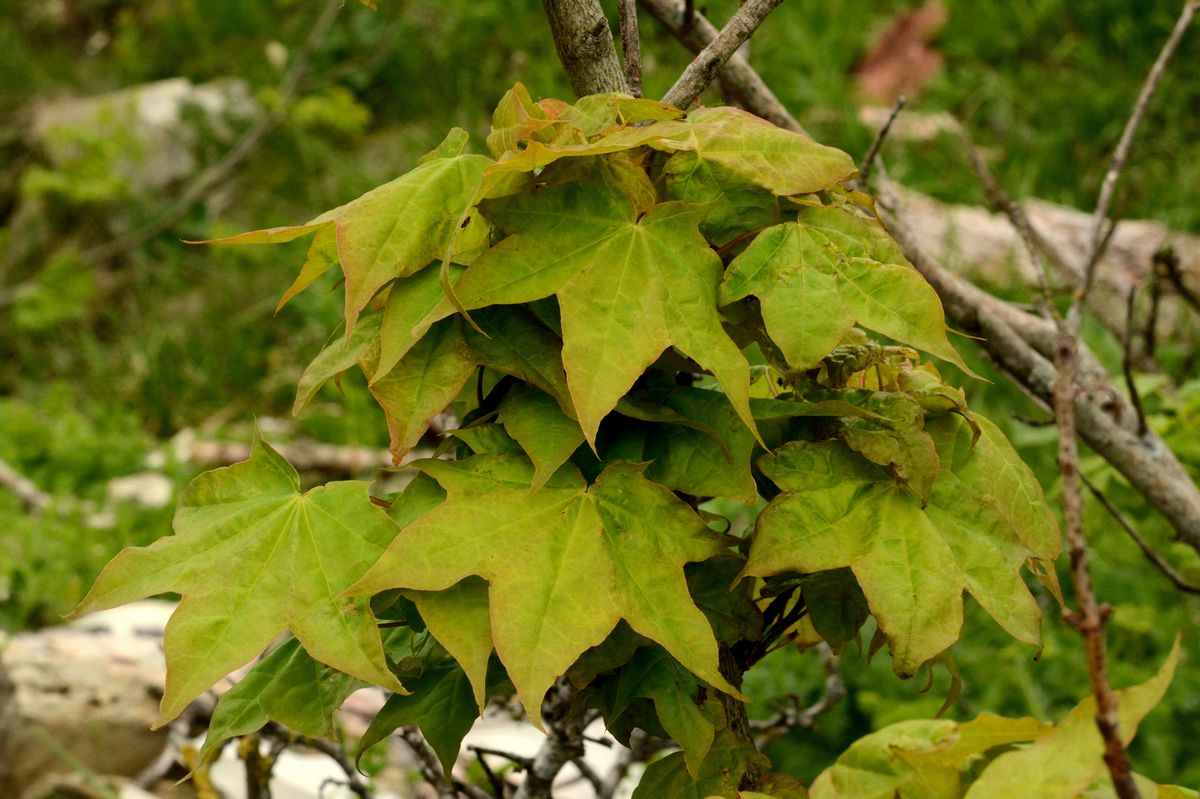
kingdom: Plantae
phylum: Tracheophyta
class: Magnoliopsida
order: Sapindales
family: Sapindaceae
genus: Acer
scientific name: Acer cappadocicum
